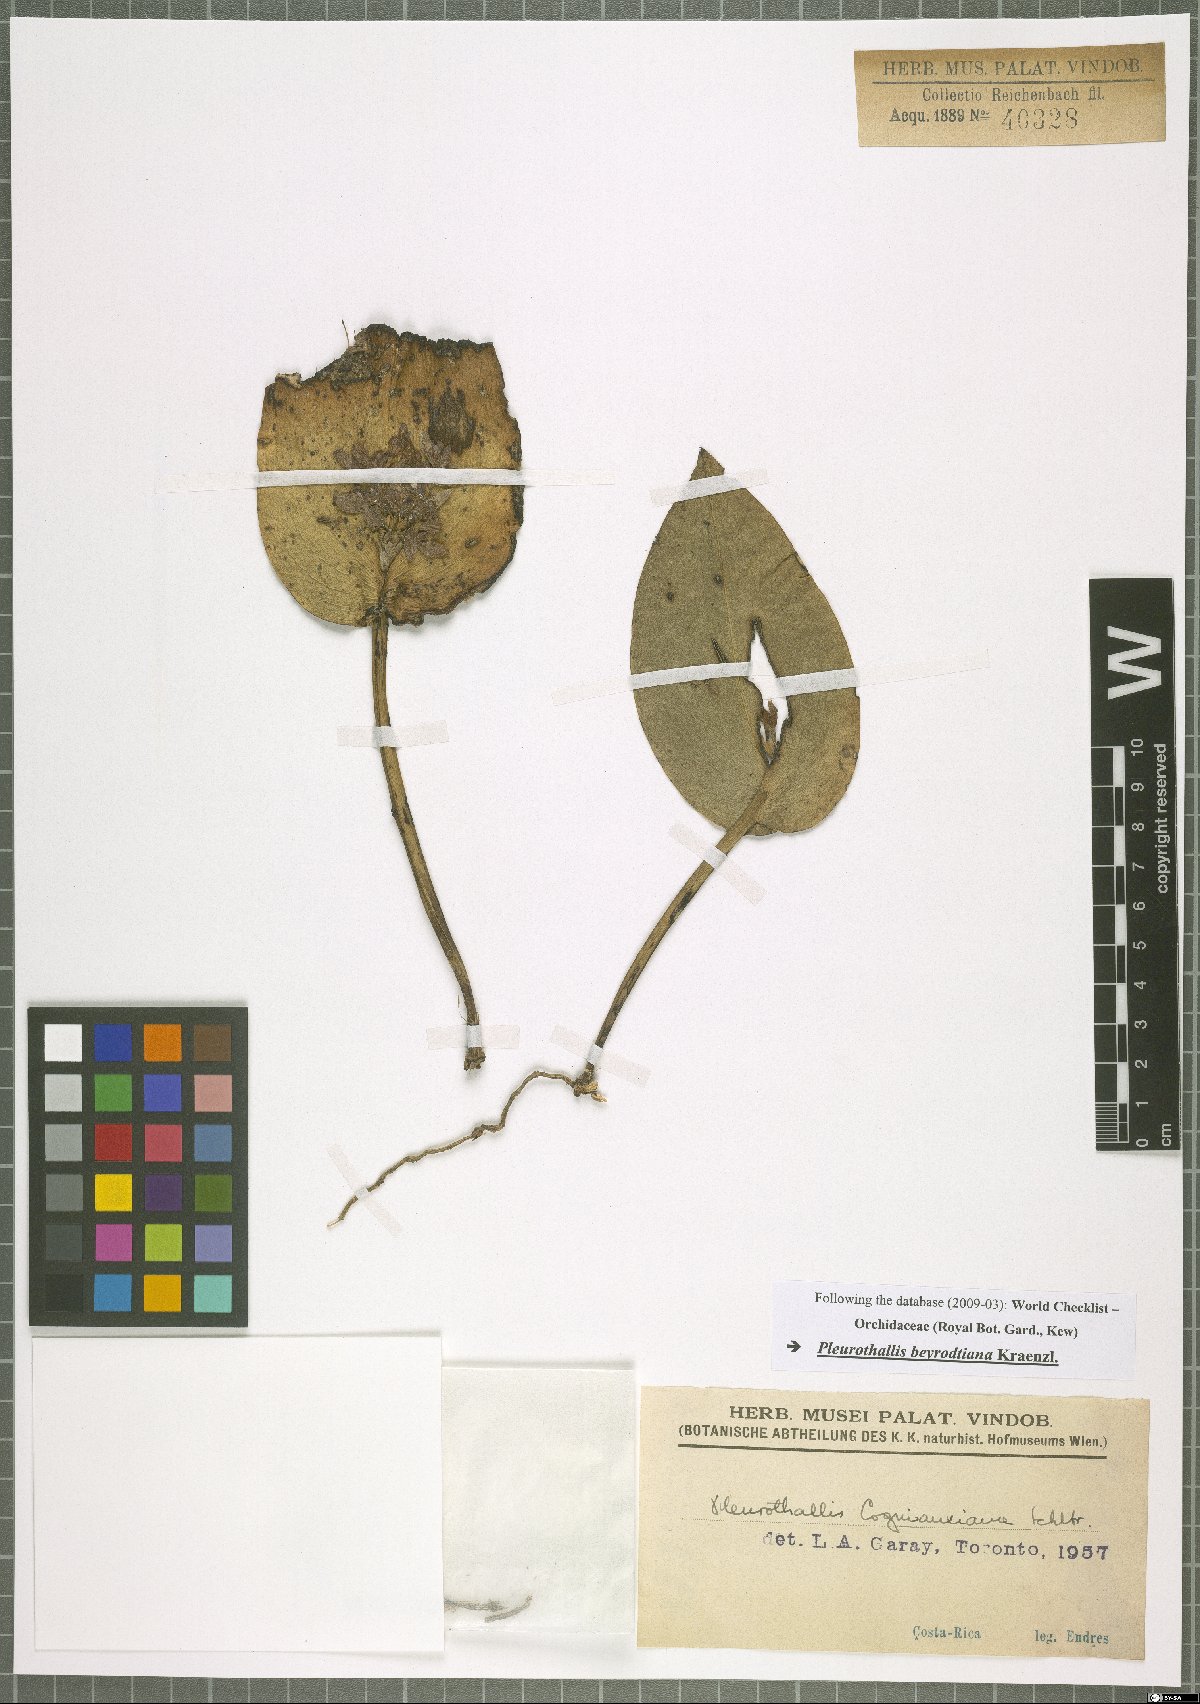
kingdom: Plantae
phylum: Tracheophyta
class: Liliopsida
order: Asparagales
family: Orchidaceae
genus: Acianthera
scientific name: Acianthera cogniauxiana
